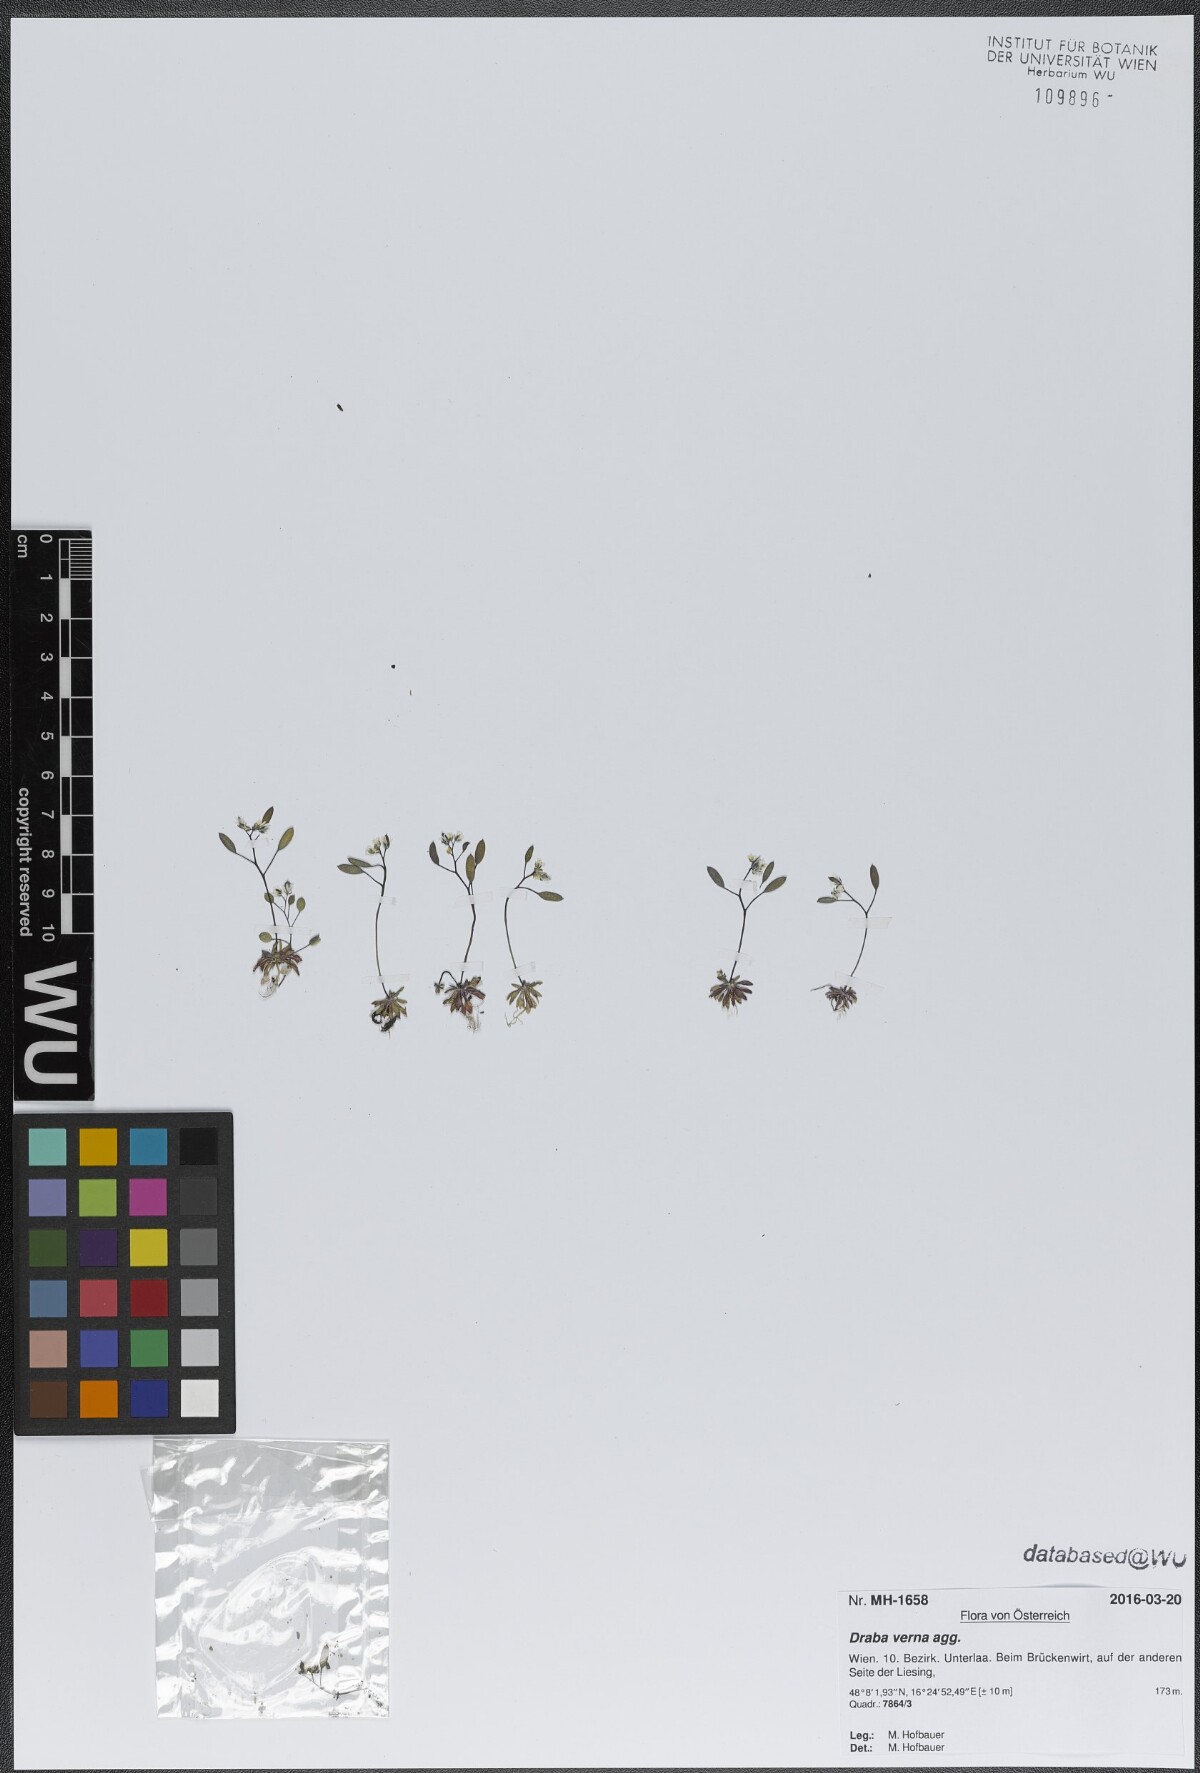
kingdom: Plantae
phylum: Tracheophyta
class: Magnoliopsida
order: Brassicales
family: Brassicaceae
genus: Draba
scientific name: Draba verna
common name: Spring draba
